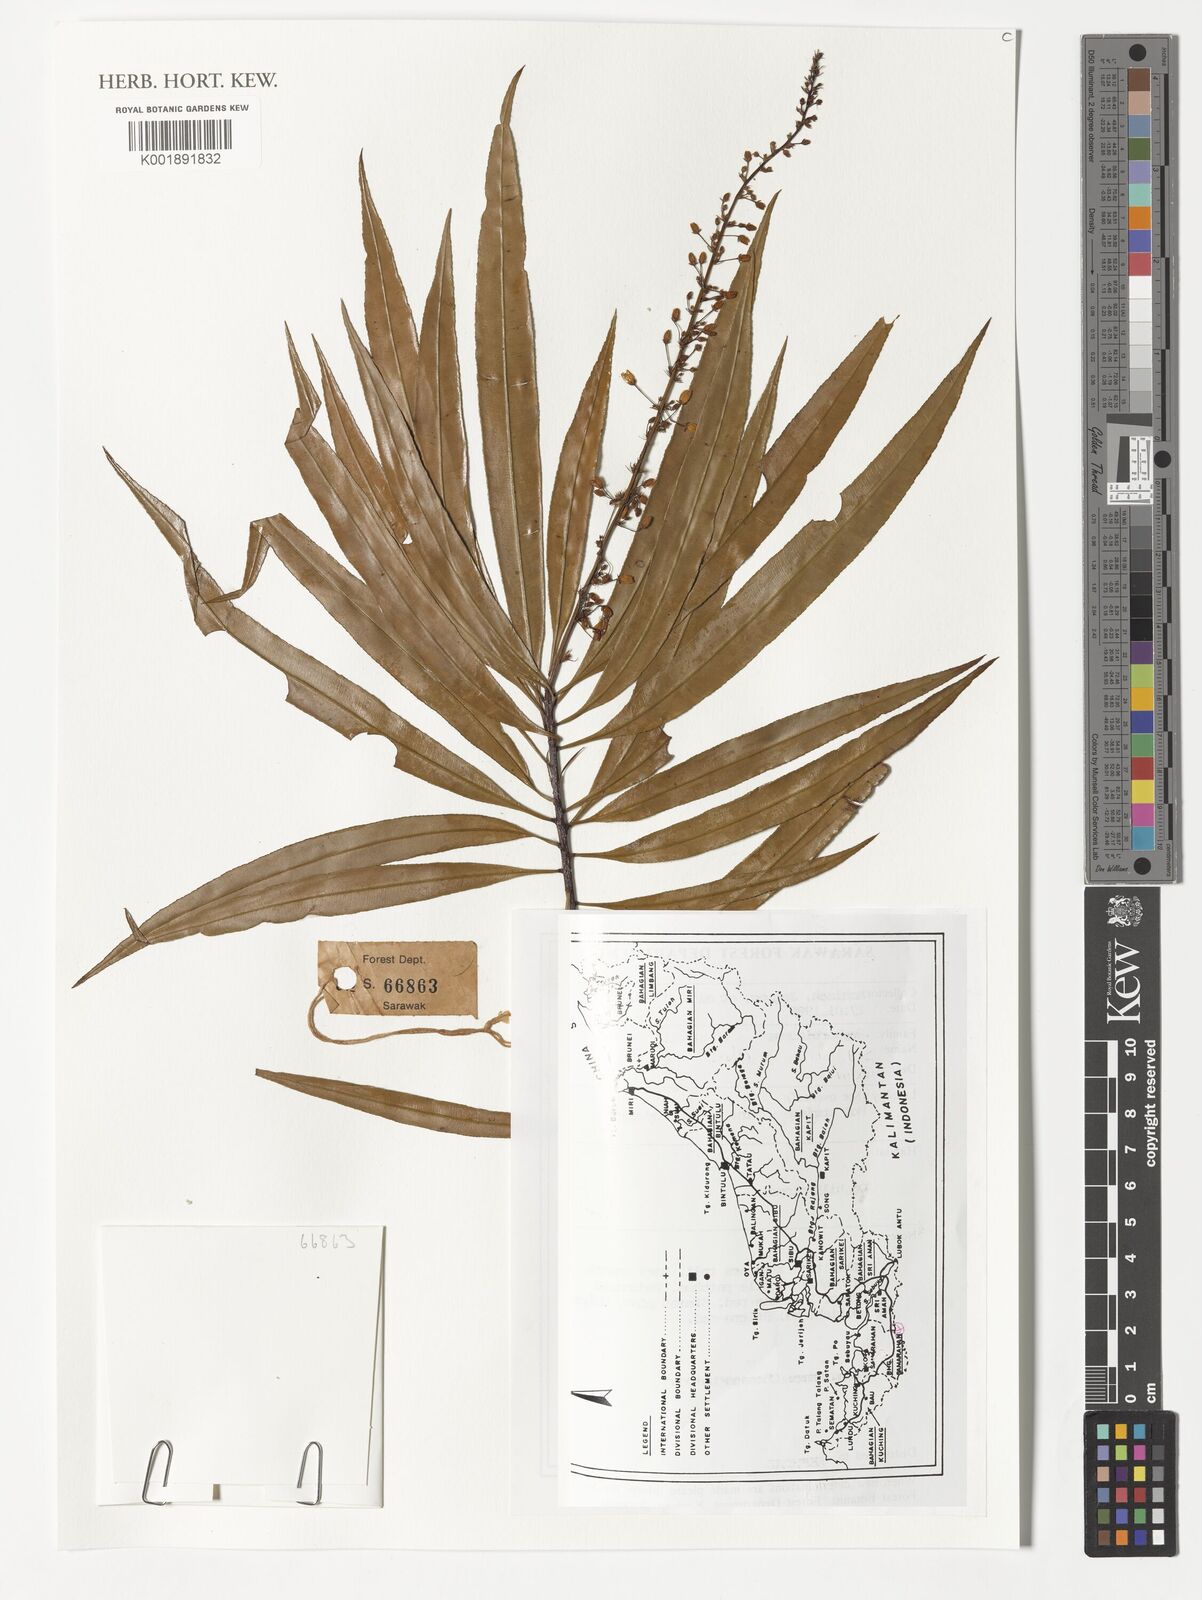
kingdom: Plantae
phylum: Tracheophyta
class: Magnoliopsida
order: Malpighiales
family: Ochnaceae
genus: Schuurmansiella
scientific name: Schuurmansiella angustifolia
